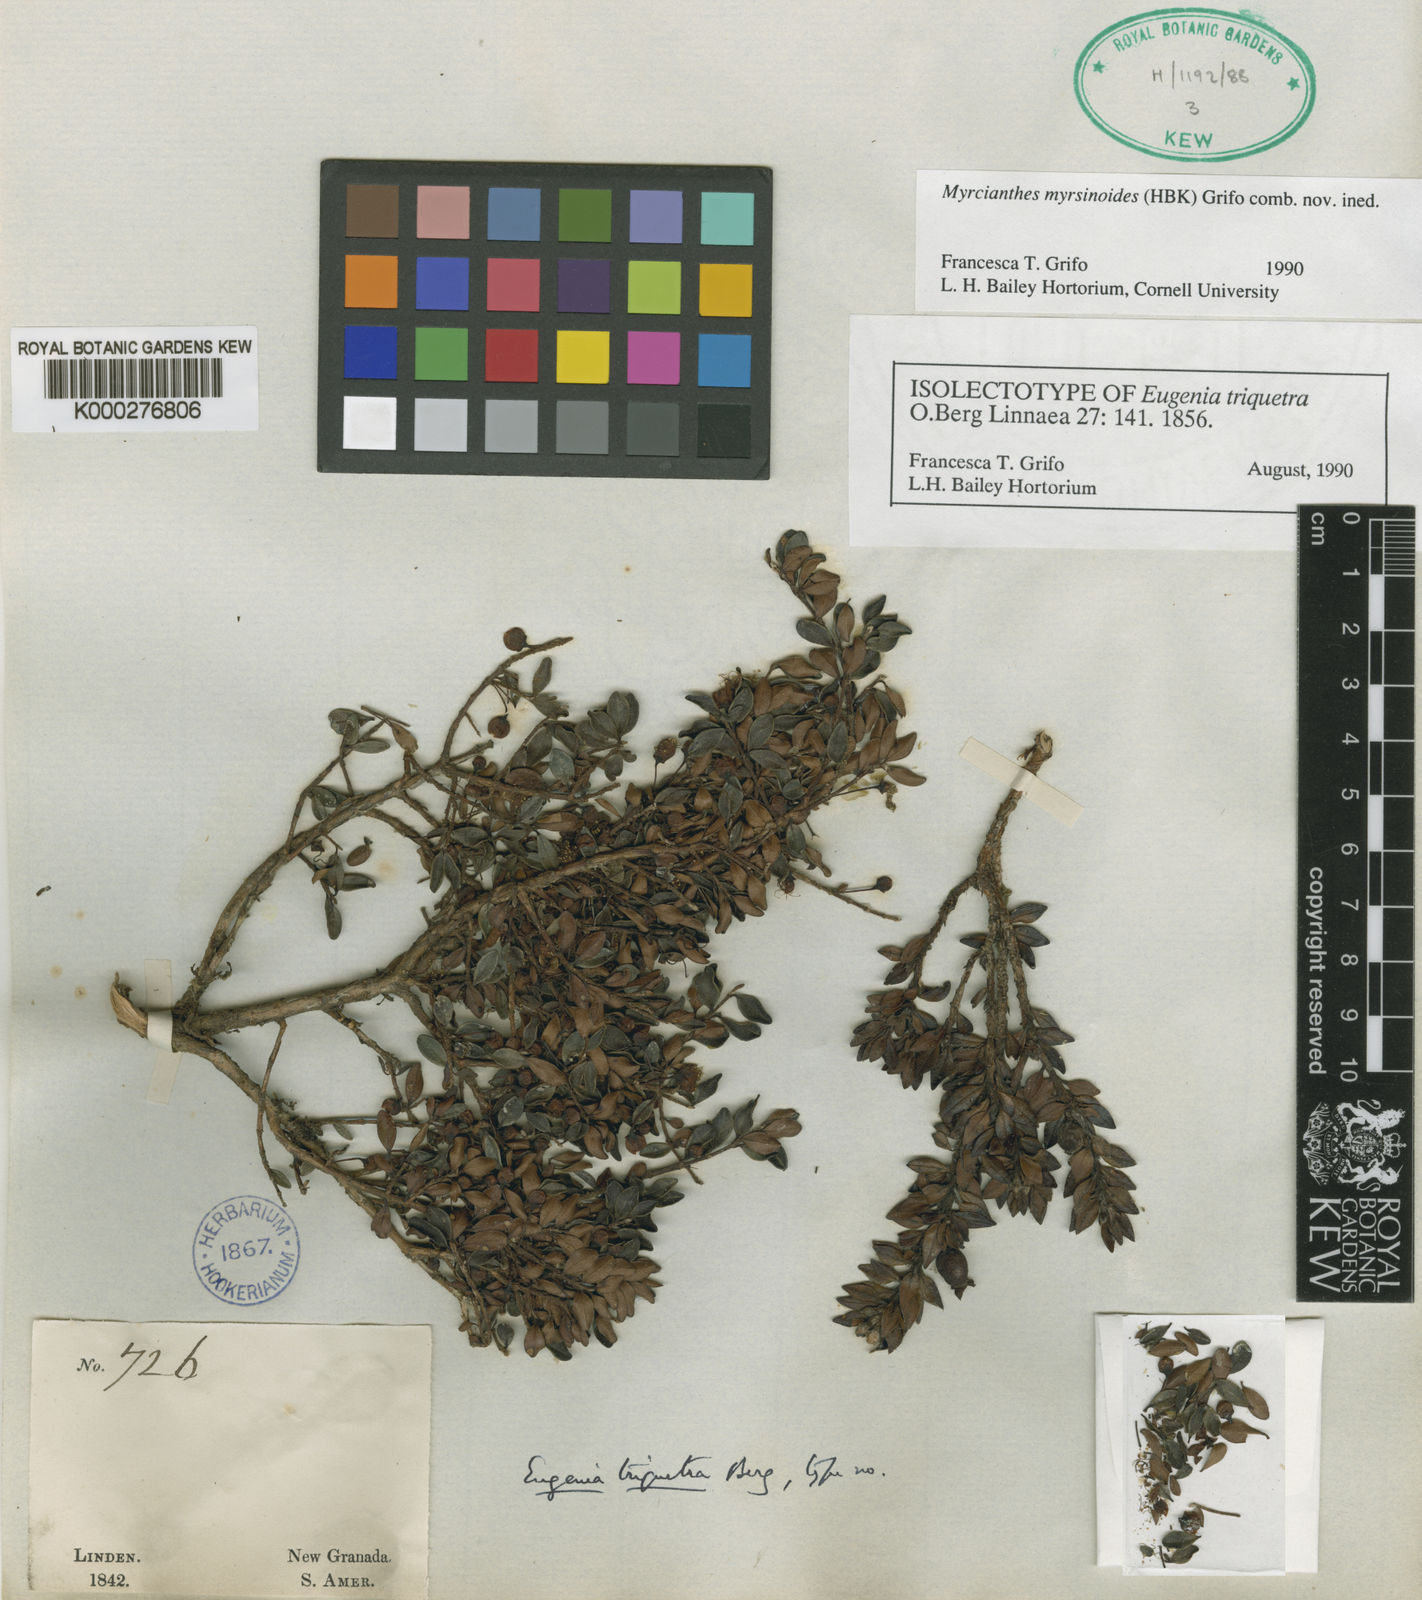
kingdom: Plantae
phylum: Tracheophyta
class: Magnoliopsida
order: Myrtales
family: Myrtaceae
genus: Myrcianthes
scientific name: Myrcianthes myrsinoides
